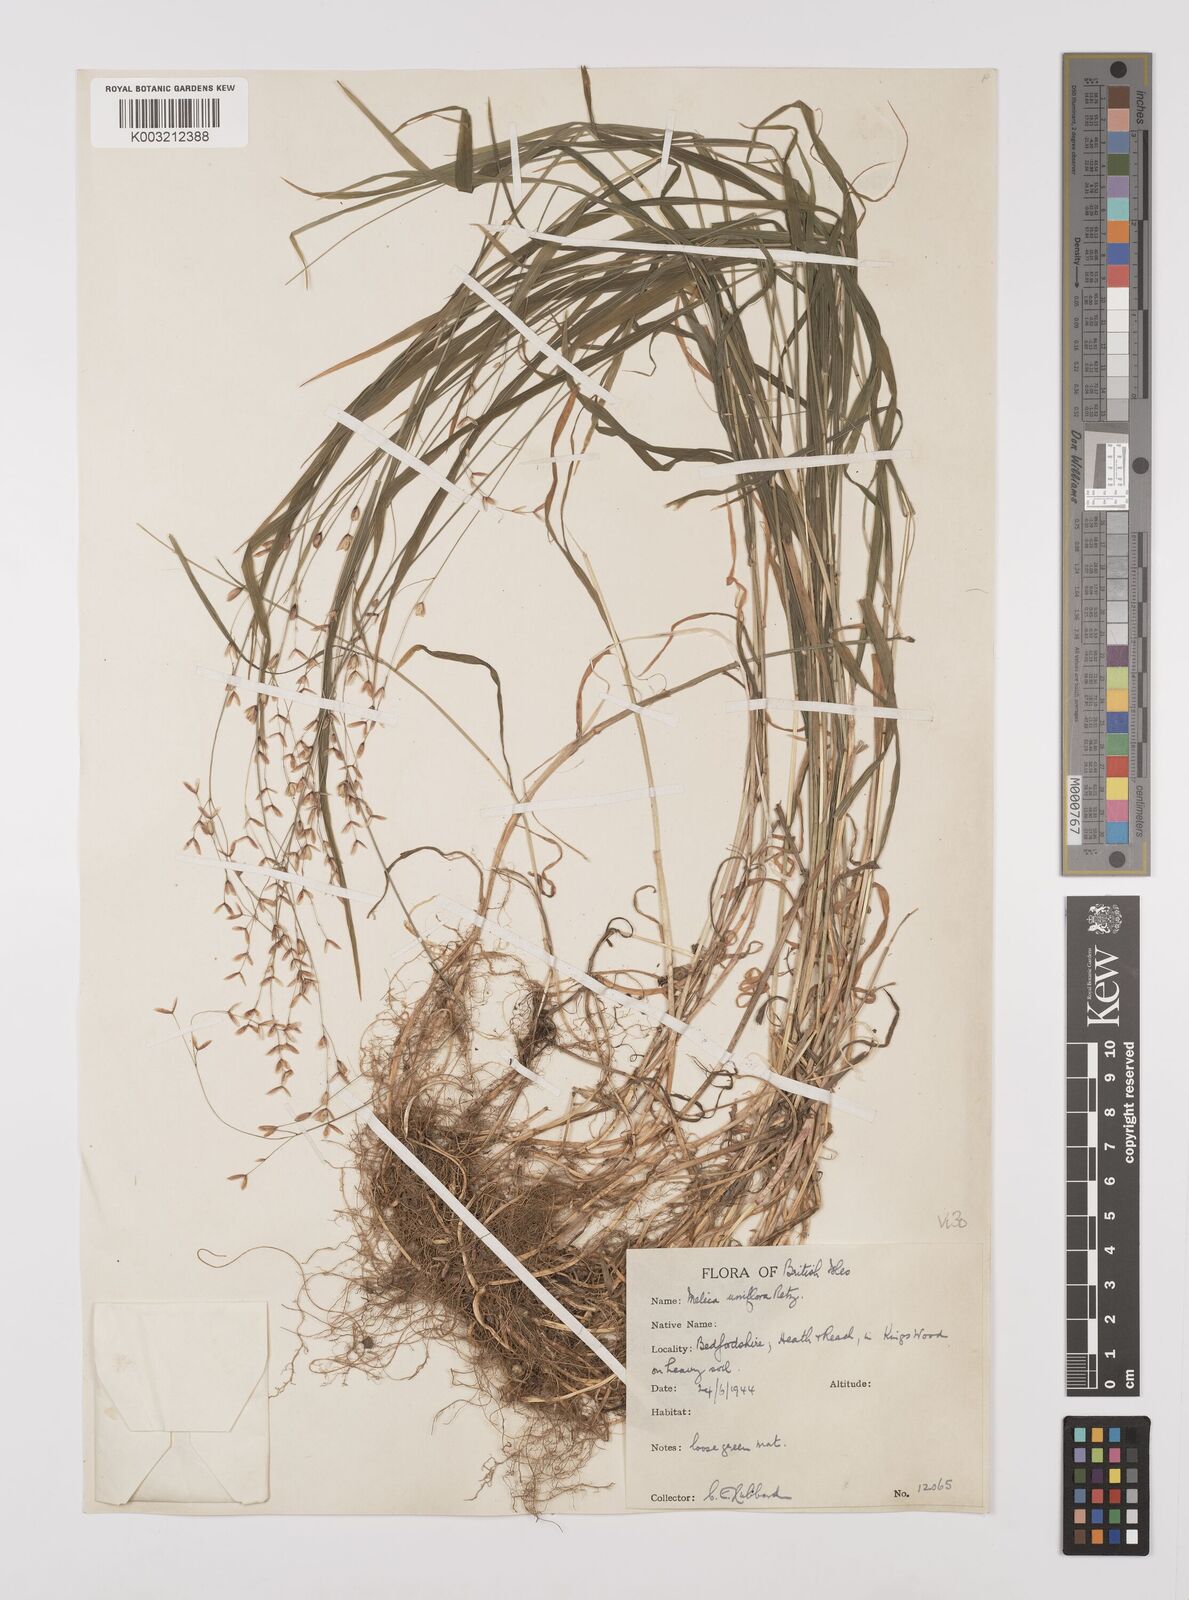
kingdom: Plantae
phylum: Tracheophyta
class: Liliopsida
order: Poales
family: Poaceae
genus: Melica
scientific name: Melica uniflora
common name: Wood melick
